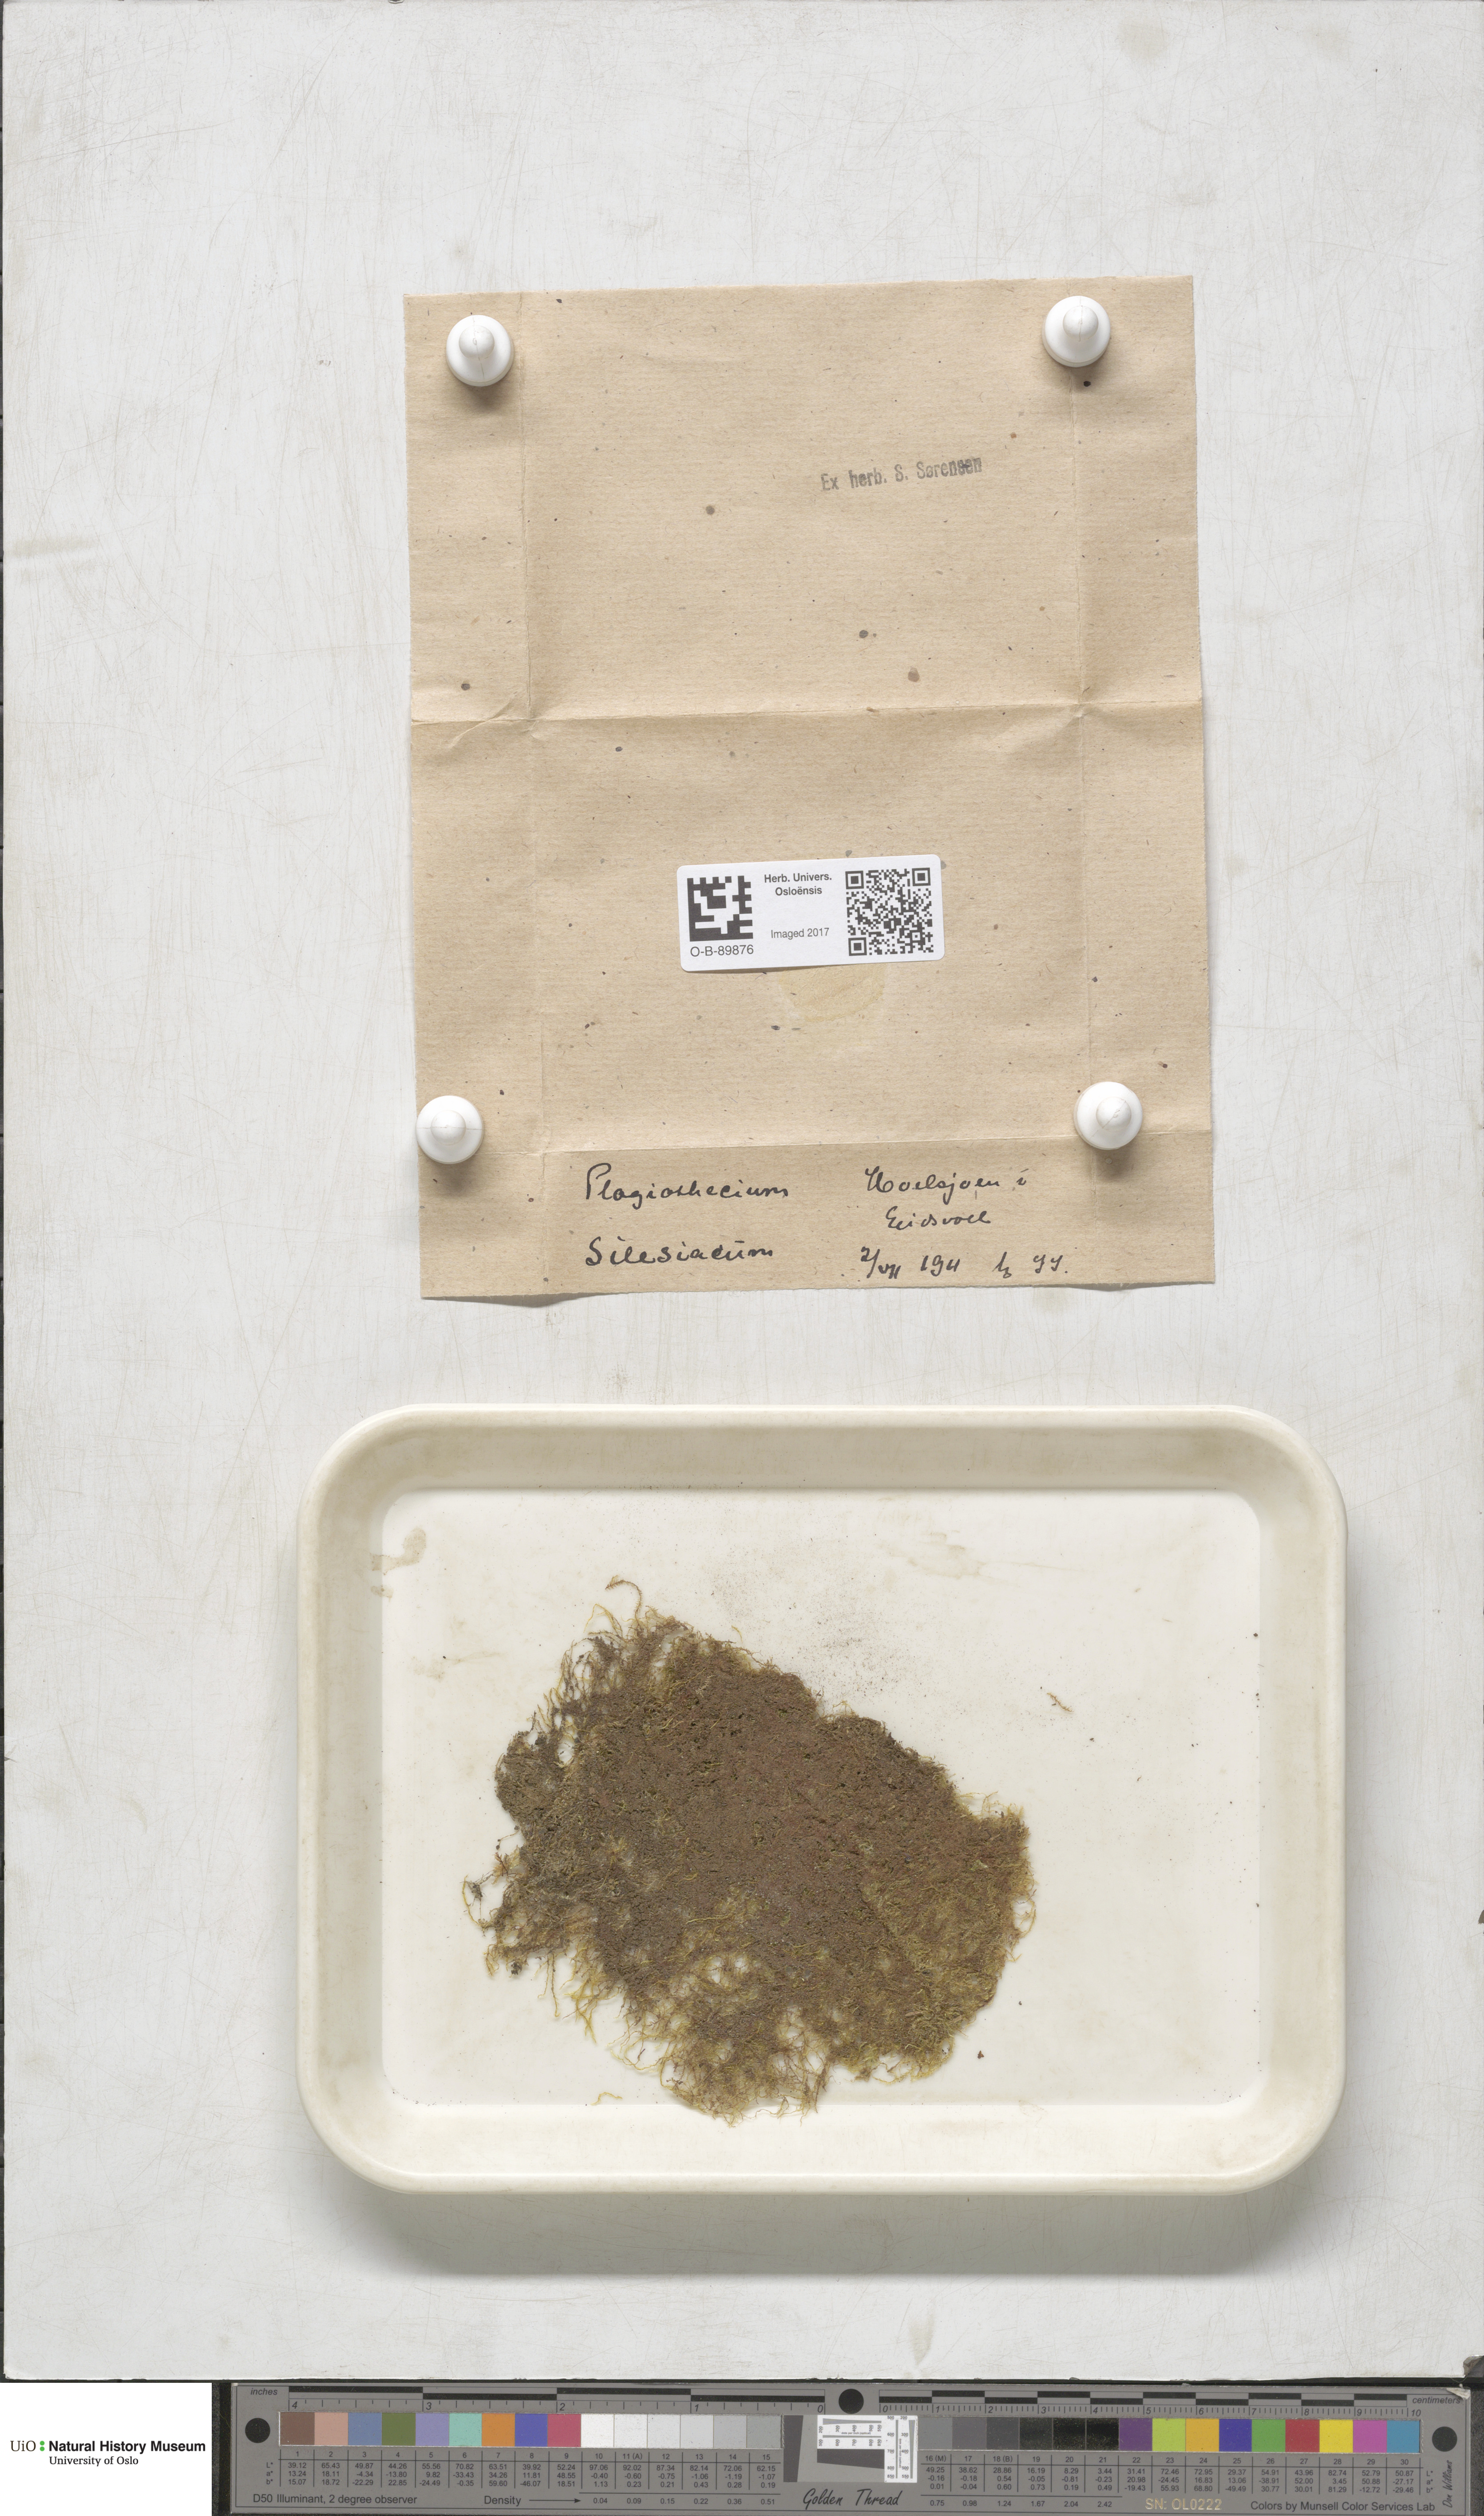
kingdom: Plantae
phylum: Bryophyta
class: Bryopsida
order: Hypnales
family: Plagiotheciaceae
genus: Herzogiella
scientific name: Herzogiella seligeri
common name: Silesian feather-moss
